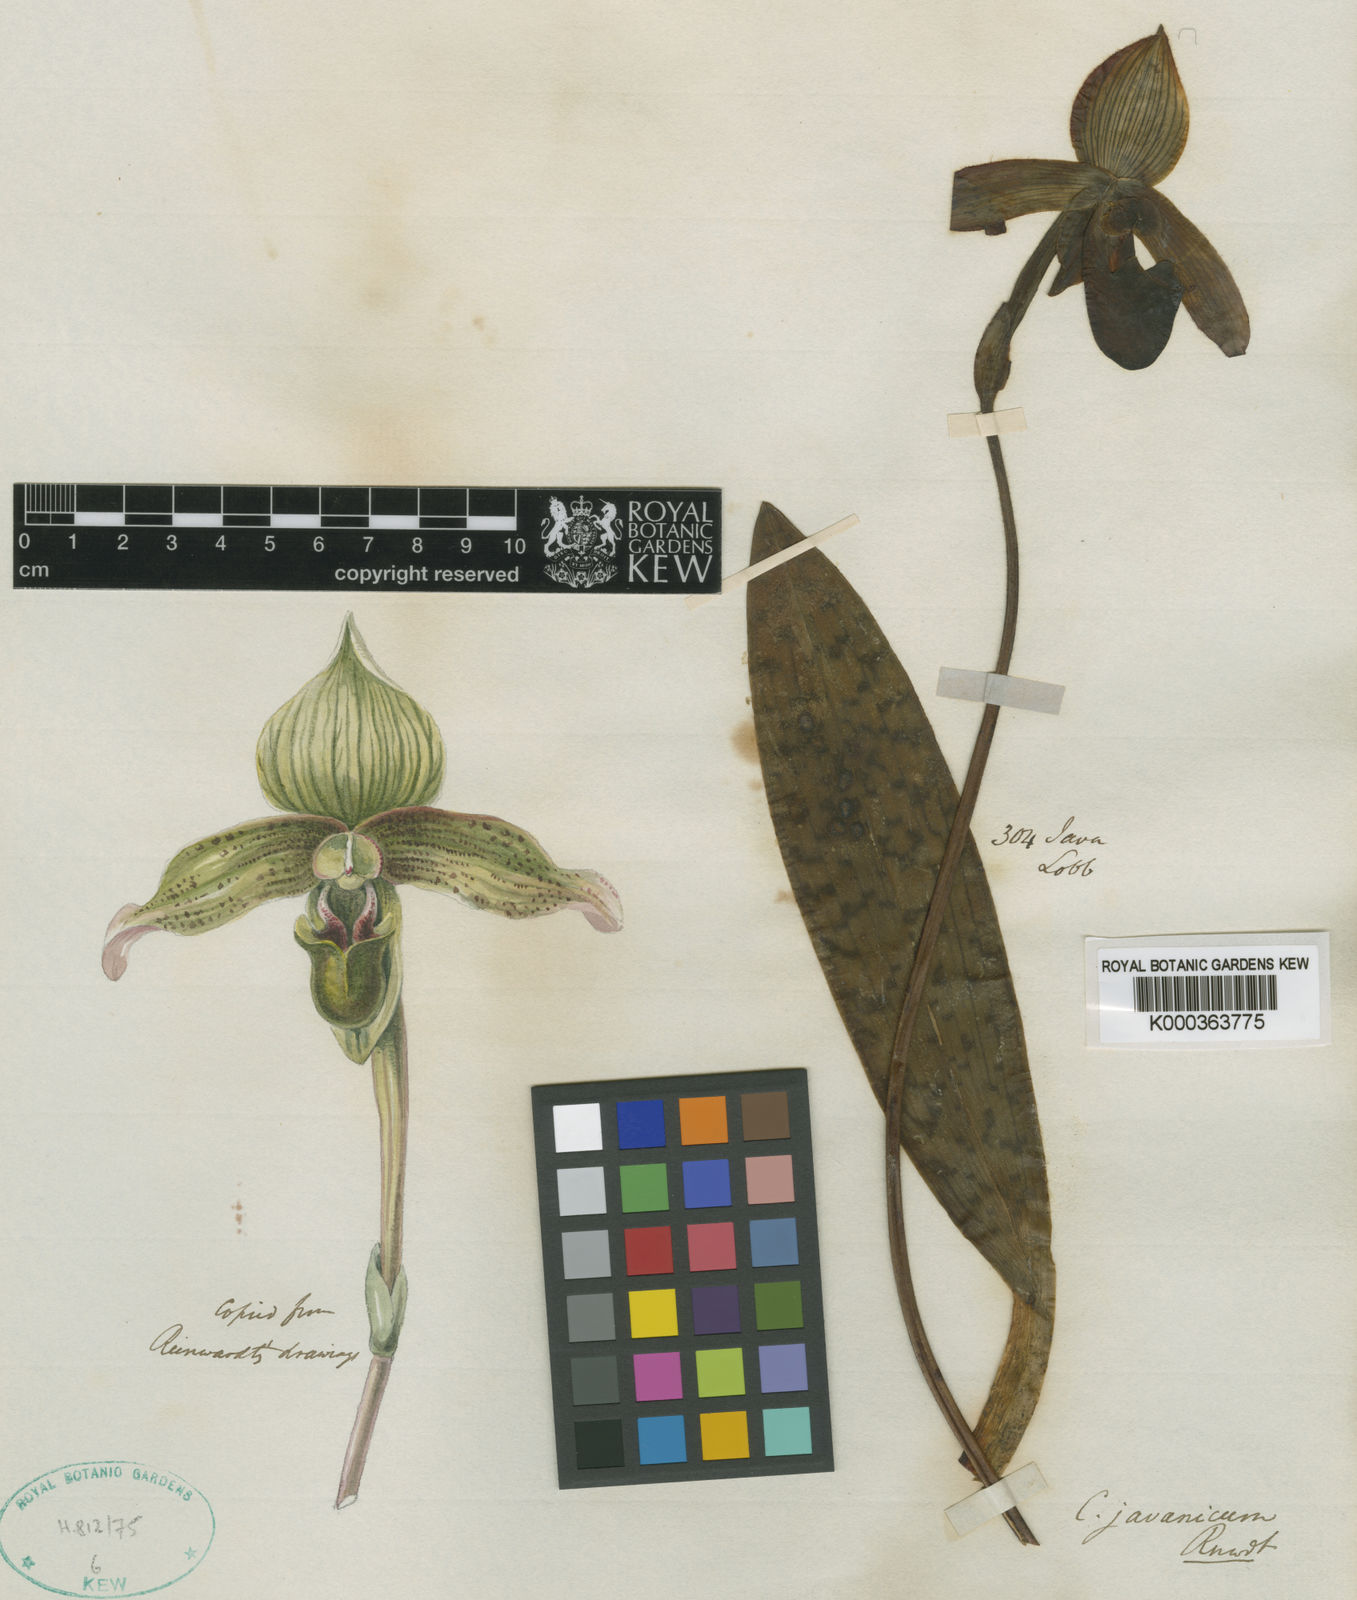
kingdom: Plantae
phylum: Tracheophyta
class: Liliopsida
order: Asparagales
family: Orchidaceae
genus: Paphiopedilum
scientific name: Paphiopedilum javanicum
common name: Java paphiopedilum
